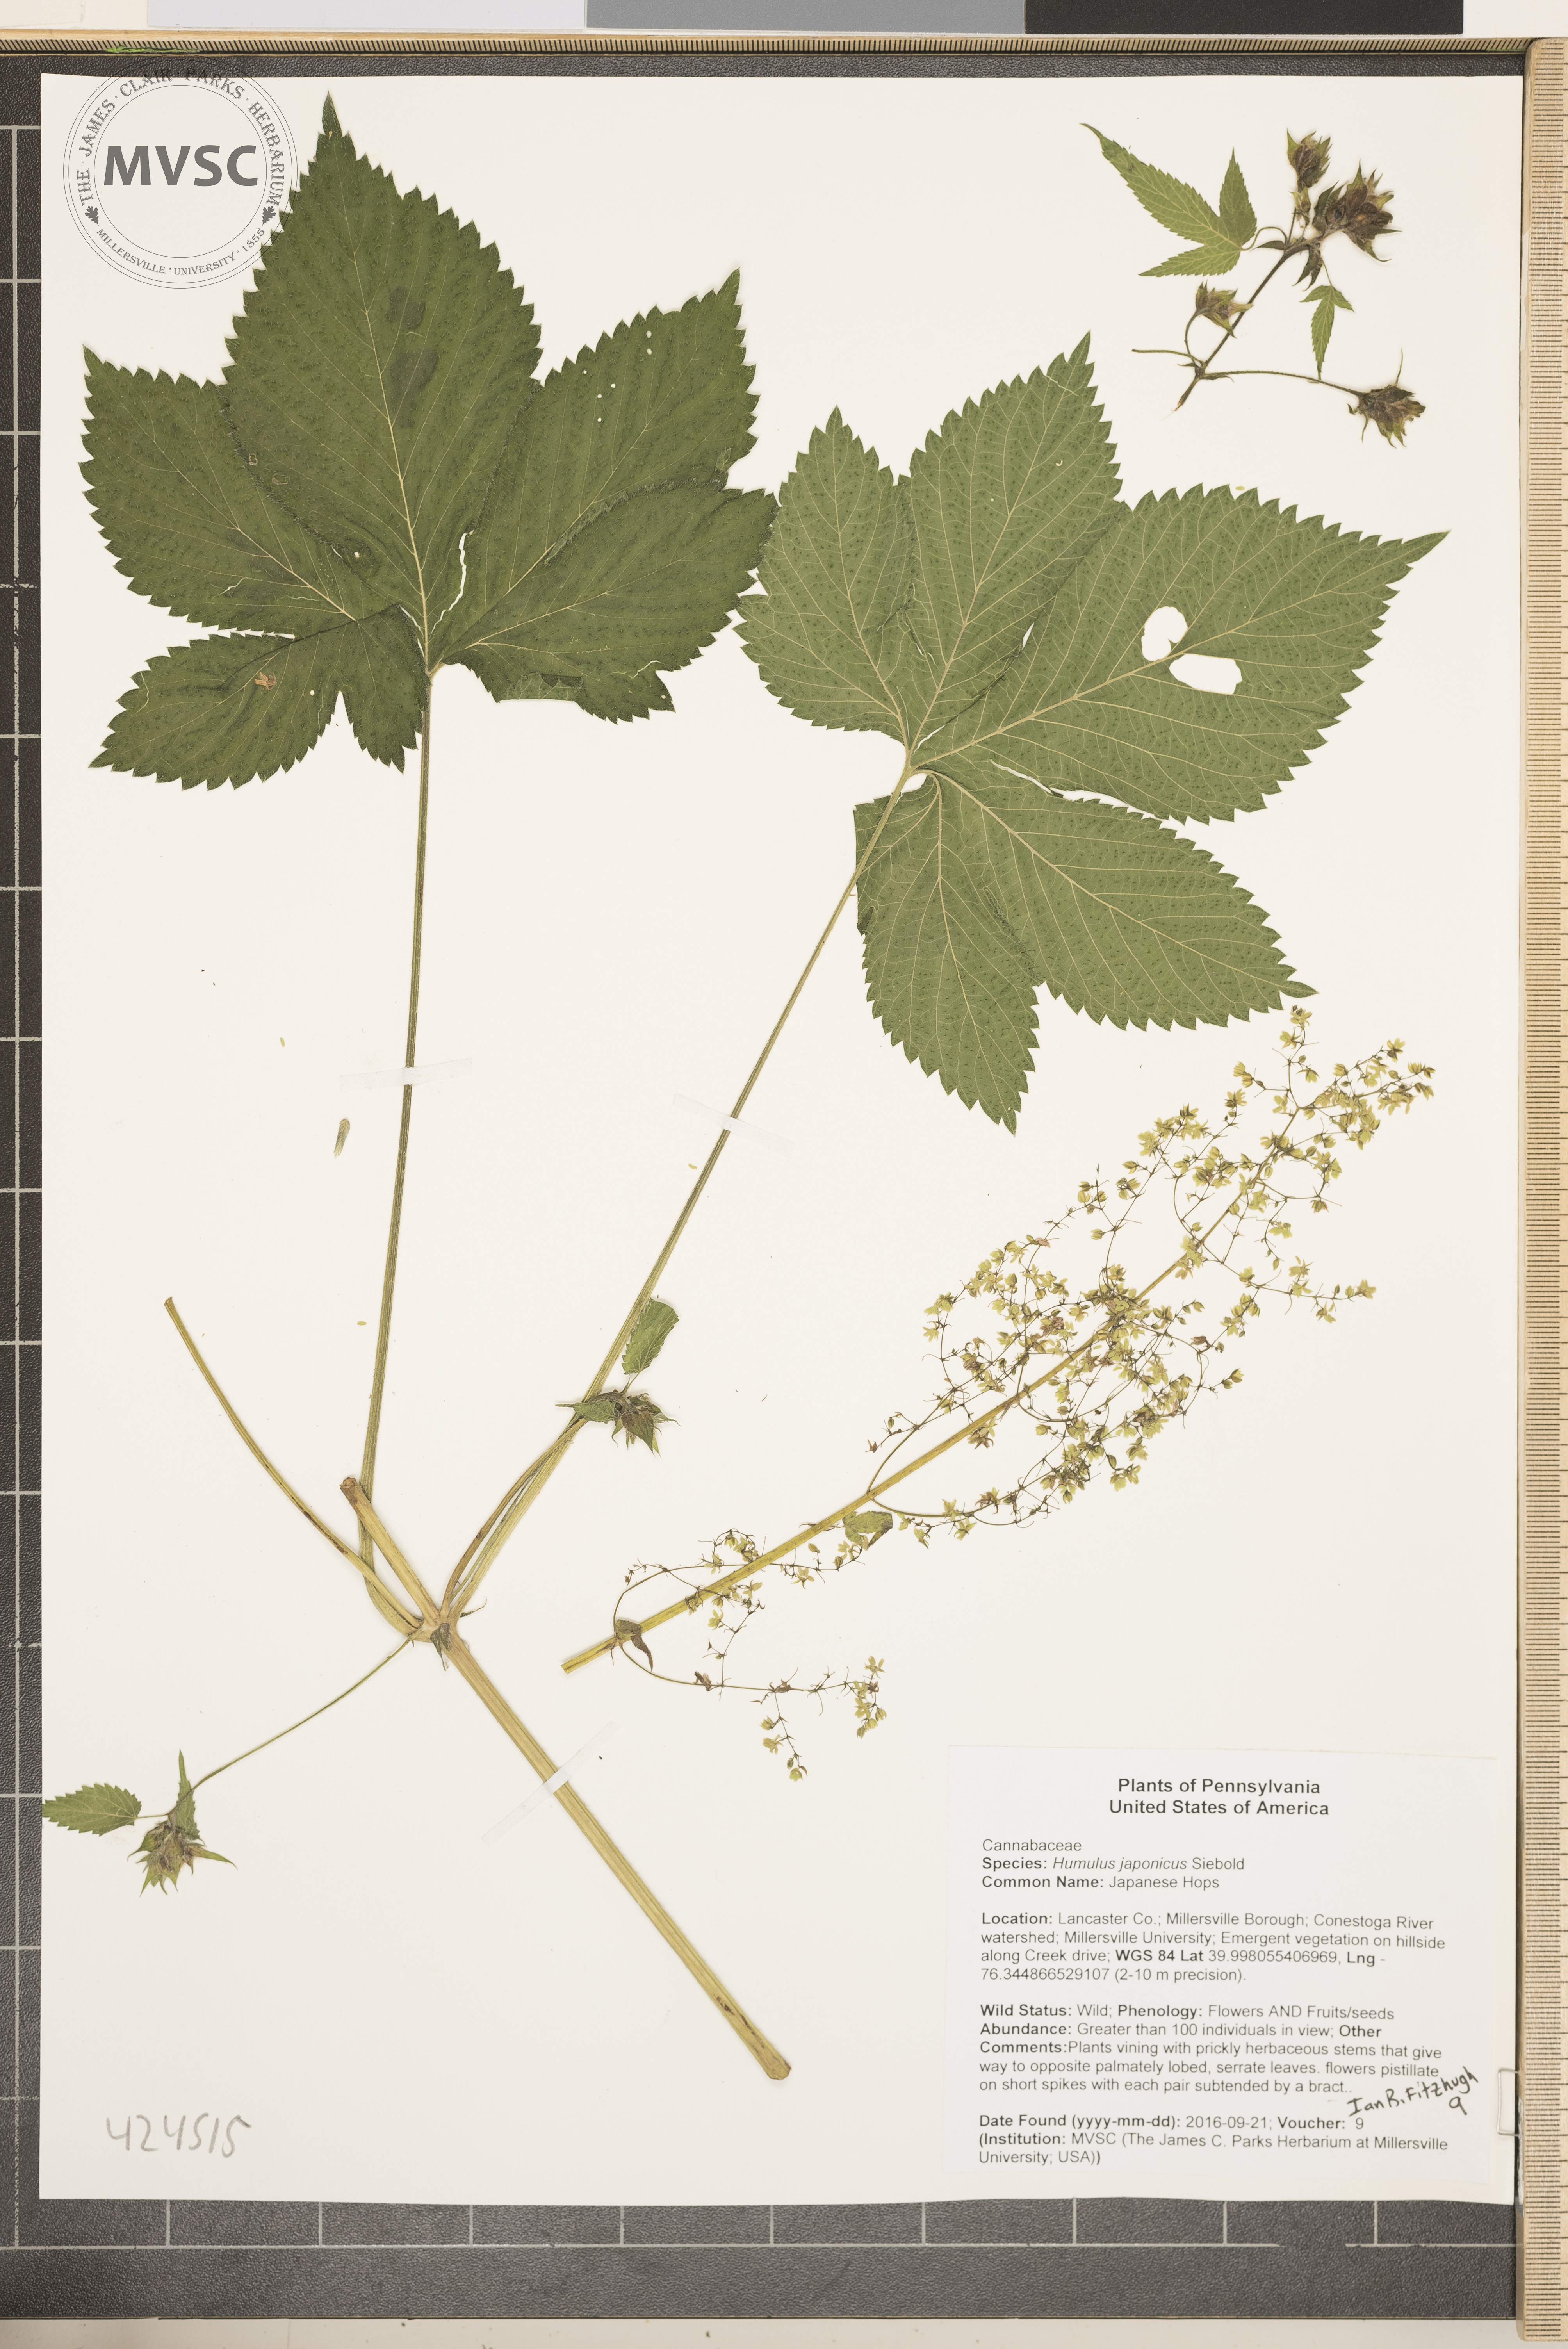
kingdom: Plantae
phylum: Tracheophyta
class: Magnoliopsida
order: Rosales
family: Cannabaceae
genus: Humulus
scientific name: Humulus scandens
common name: Japanese Hops
